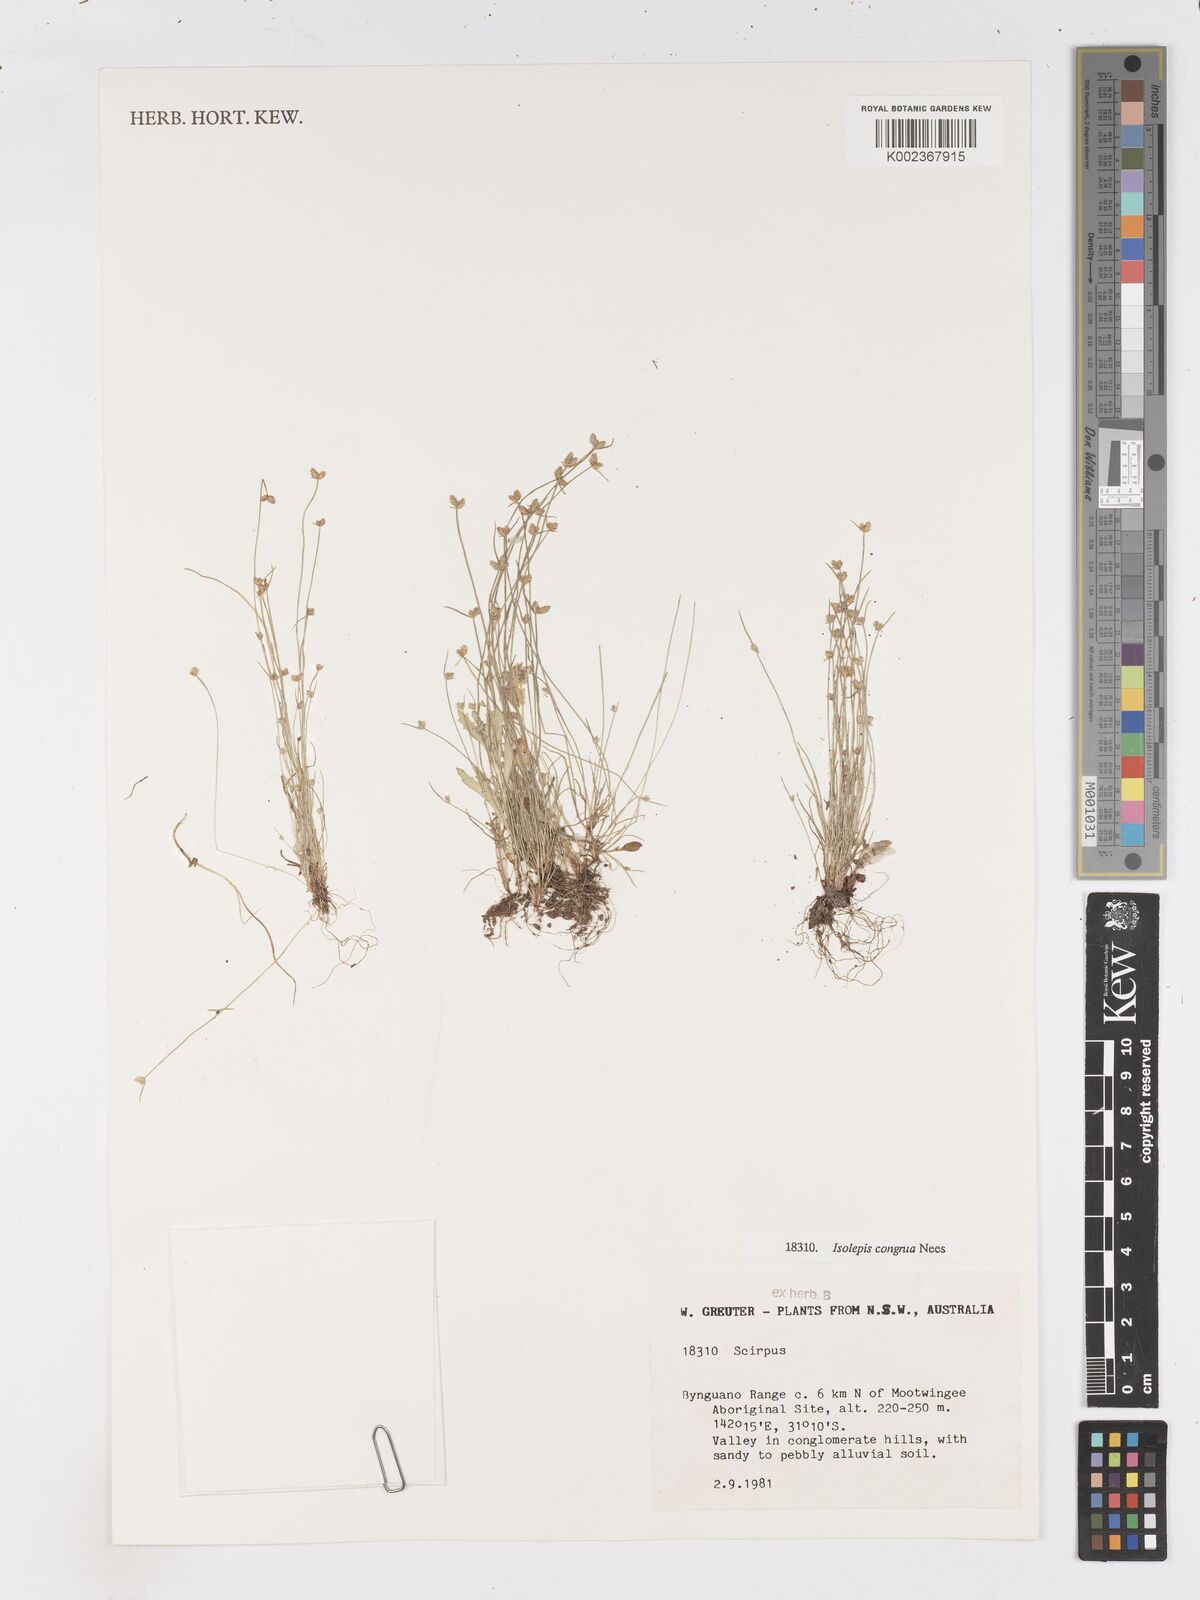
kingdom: Plantae
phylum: Tracheophyta
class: Liliopsida
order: Poales
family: Cyperaceae
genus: Isolepis
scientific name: Isolepis congrua
